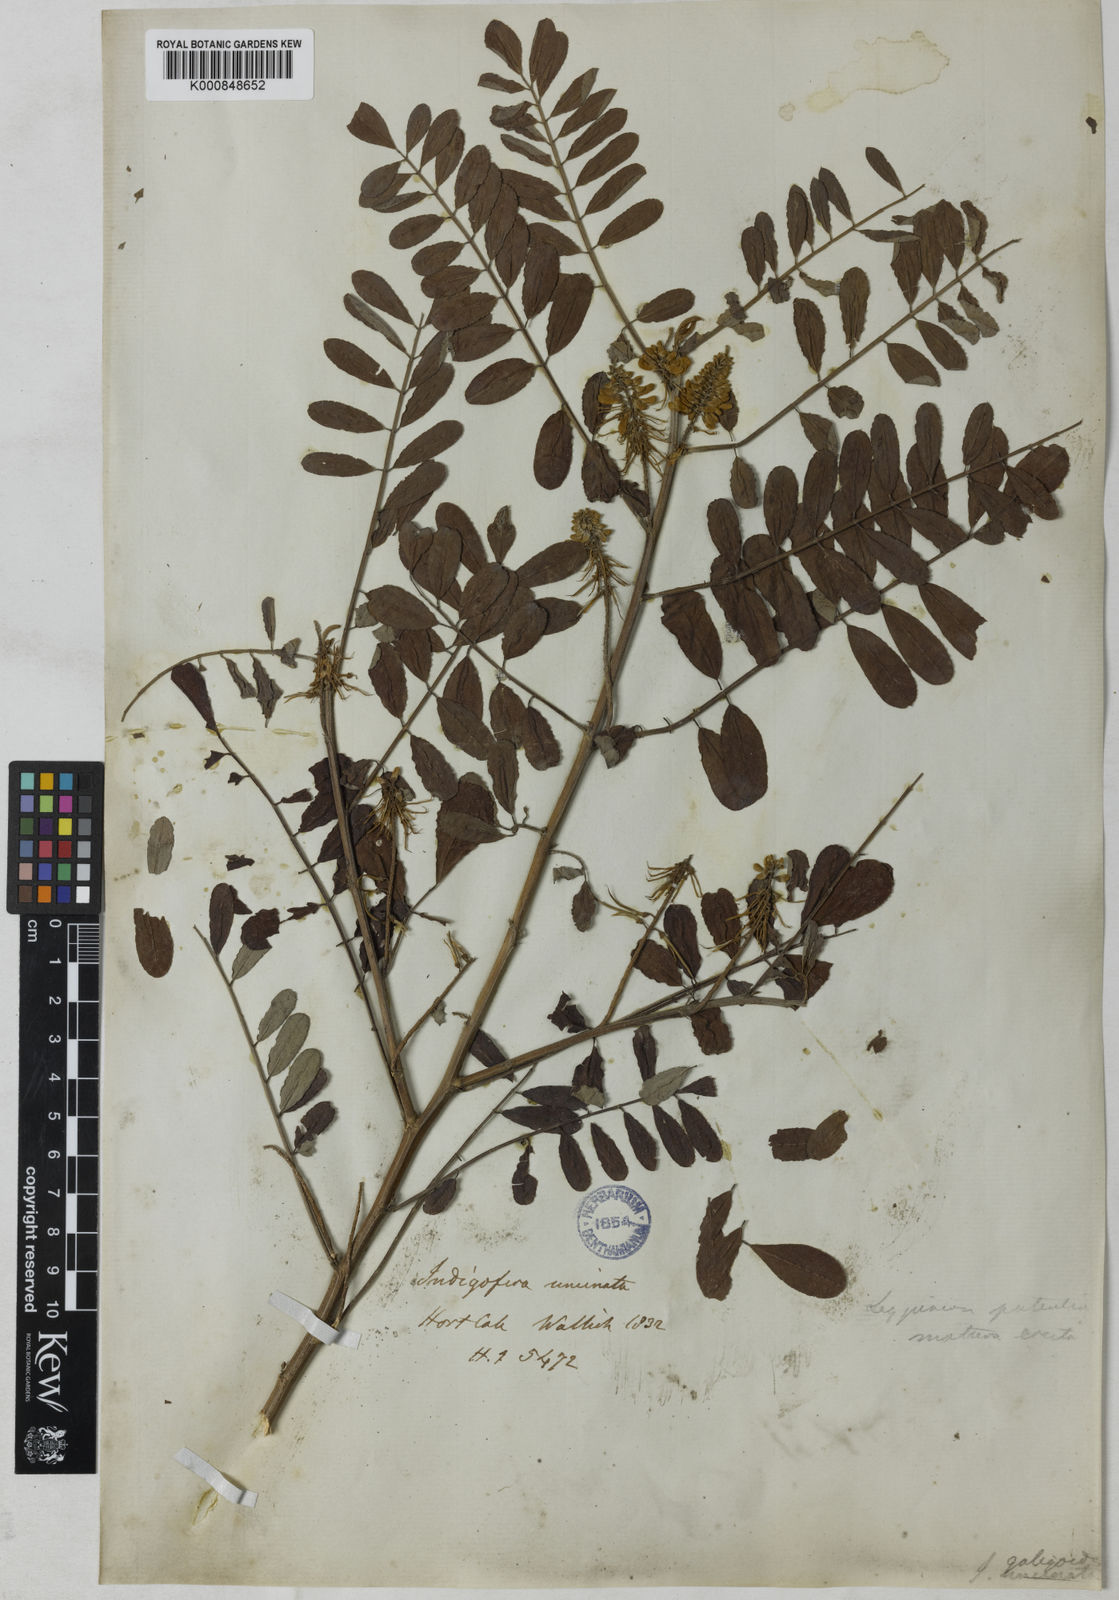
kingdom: Plantae
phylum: Tracheophyta
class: Magnoliopsida
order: Fabales
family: Fabaceae
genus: Indigofera
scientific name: Indigofera galegoides
